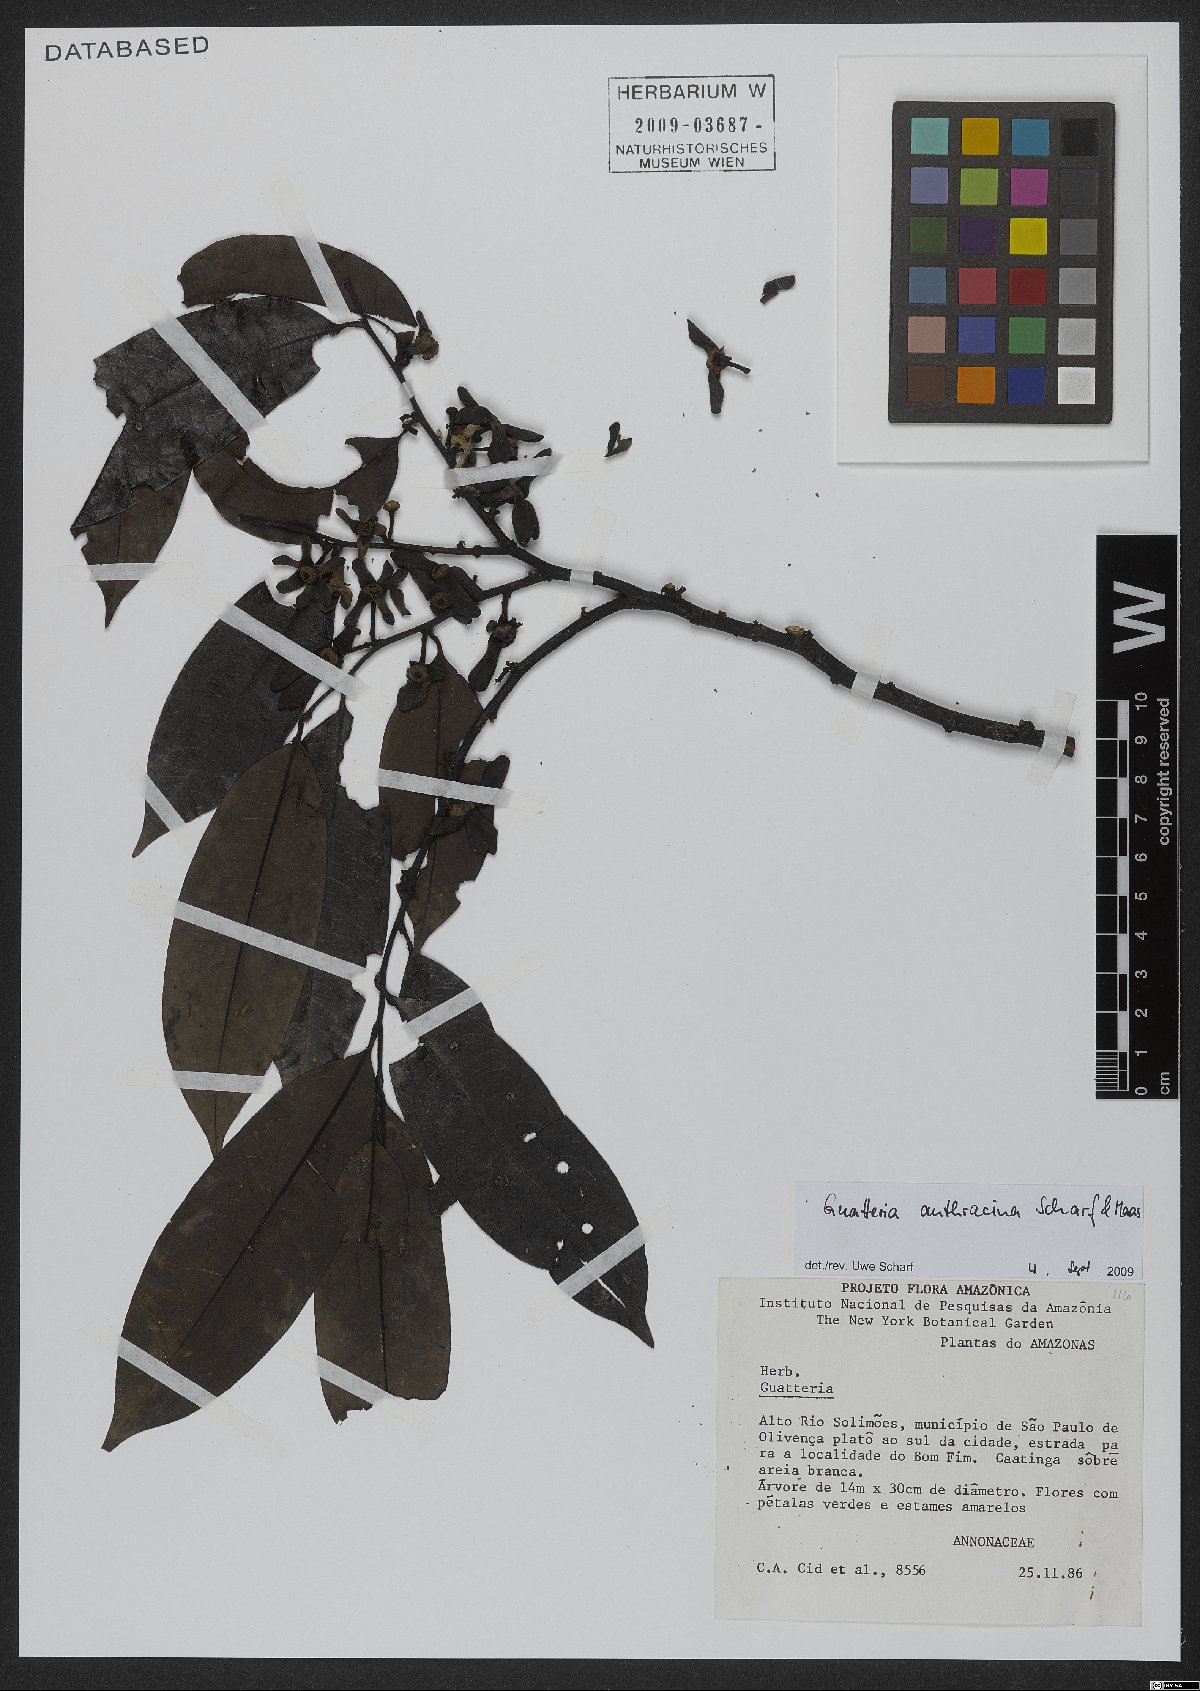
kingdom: Plantae
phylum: Tracheophyta
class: Magnoliopsida
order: Magnoliales
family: Annonaceae
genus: Guatteria
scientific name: Guatteria anthracina
